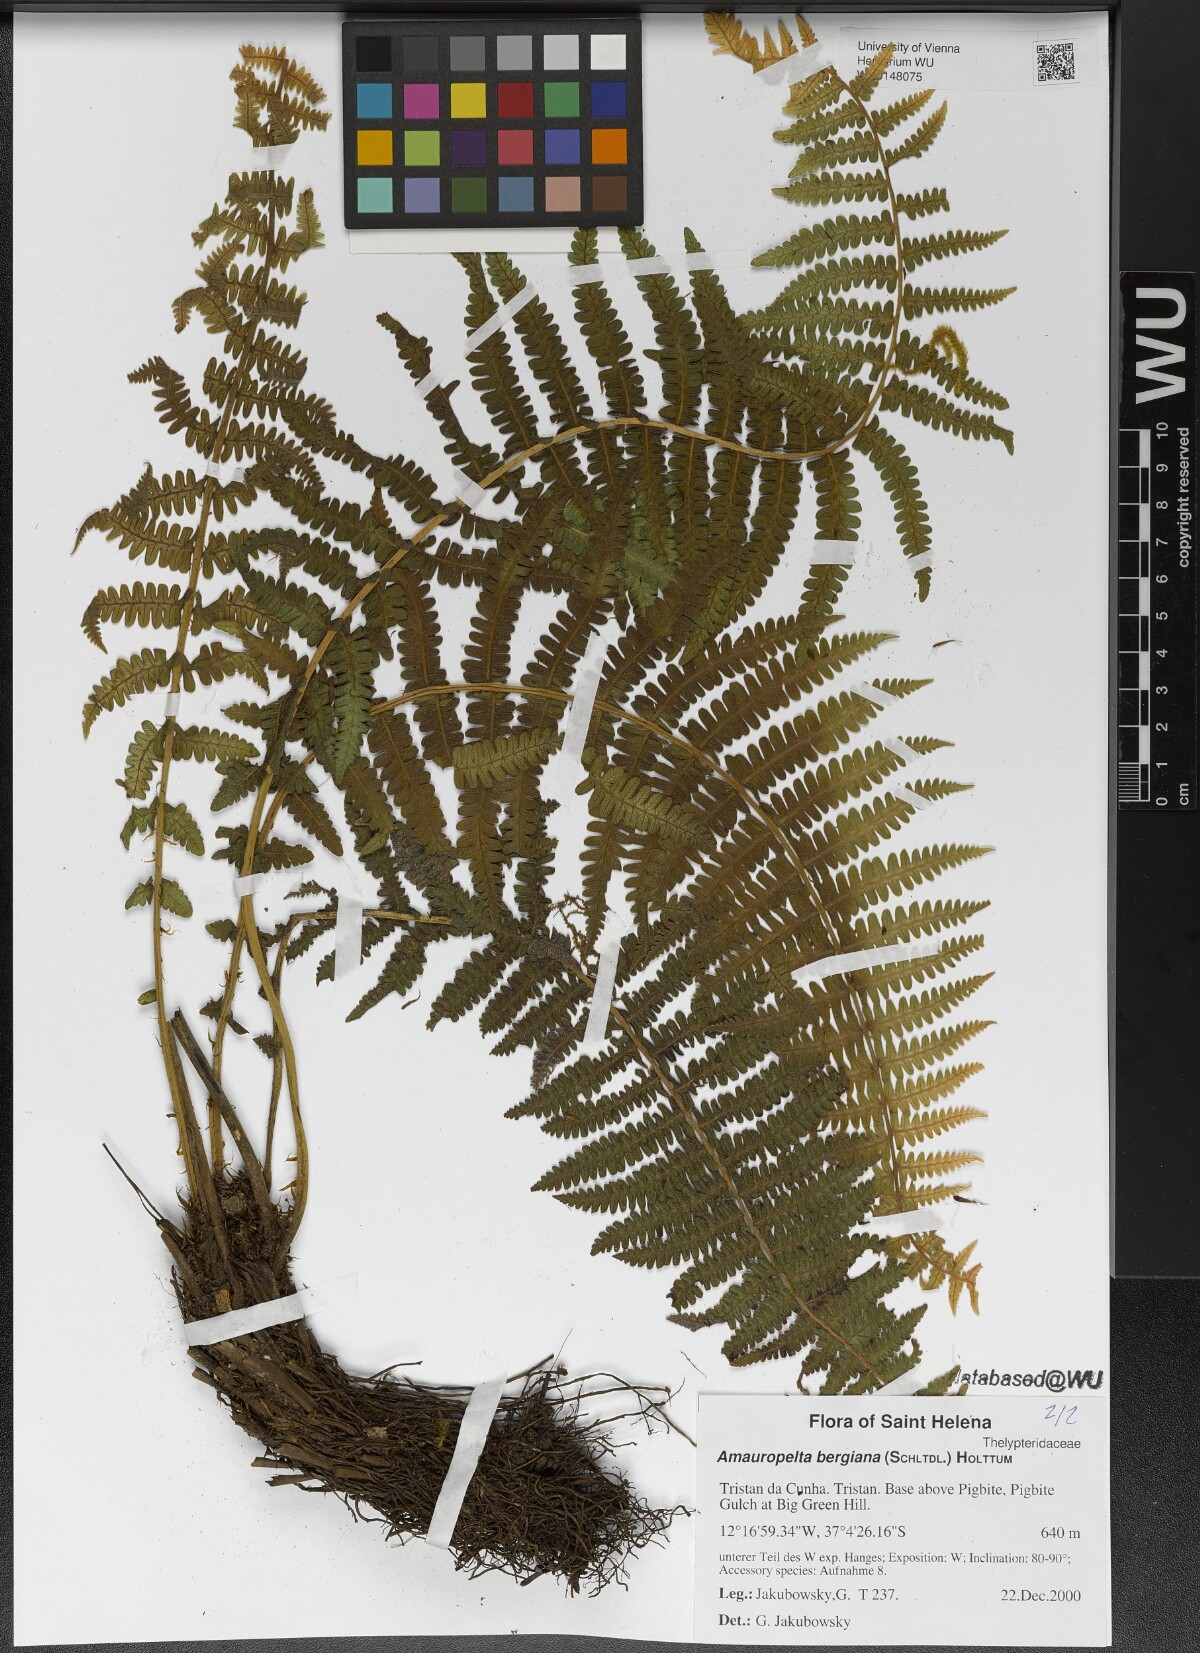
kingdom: Plantae
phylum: Tracheophyta
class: Polypodiopsida
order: Polypodiales
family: Thelypteridaceae
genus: Amauropelta
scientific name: Amauropelta bergiana
